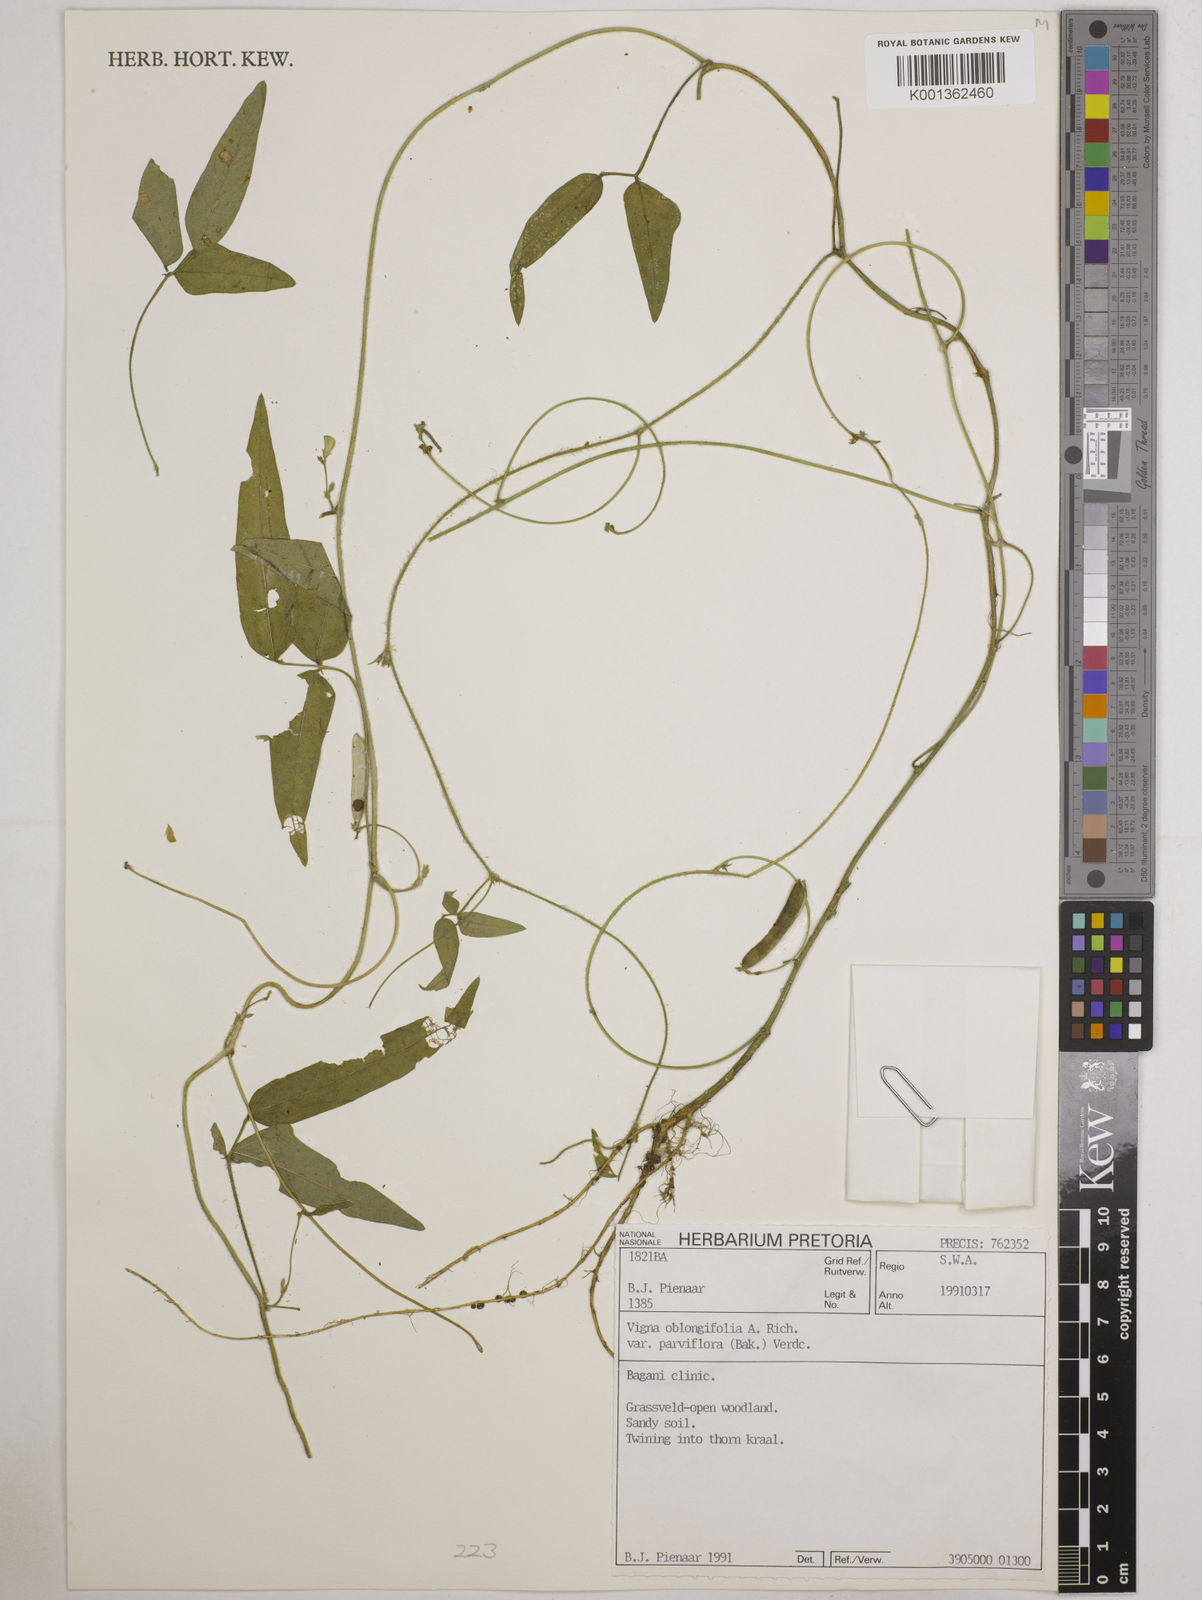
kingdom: Plantae
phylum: Tracheophyta
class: Magnoliopsida
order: Fabales
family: Fabaceae
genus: Vigna
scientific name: Vigna
